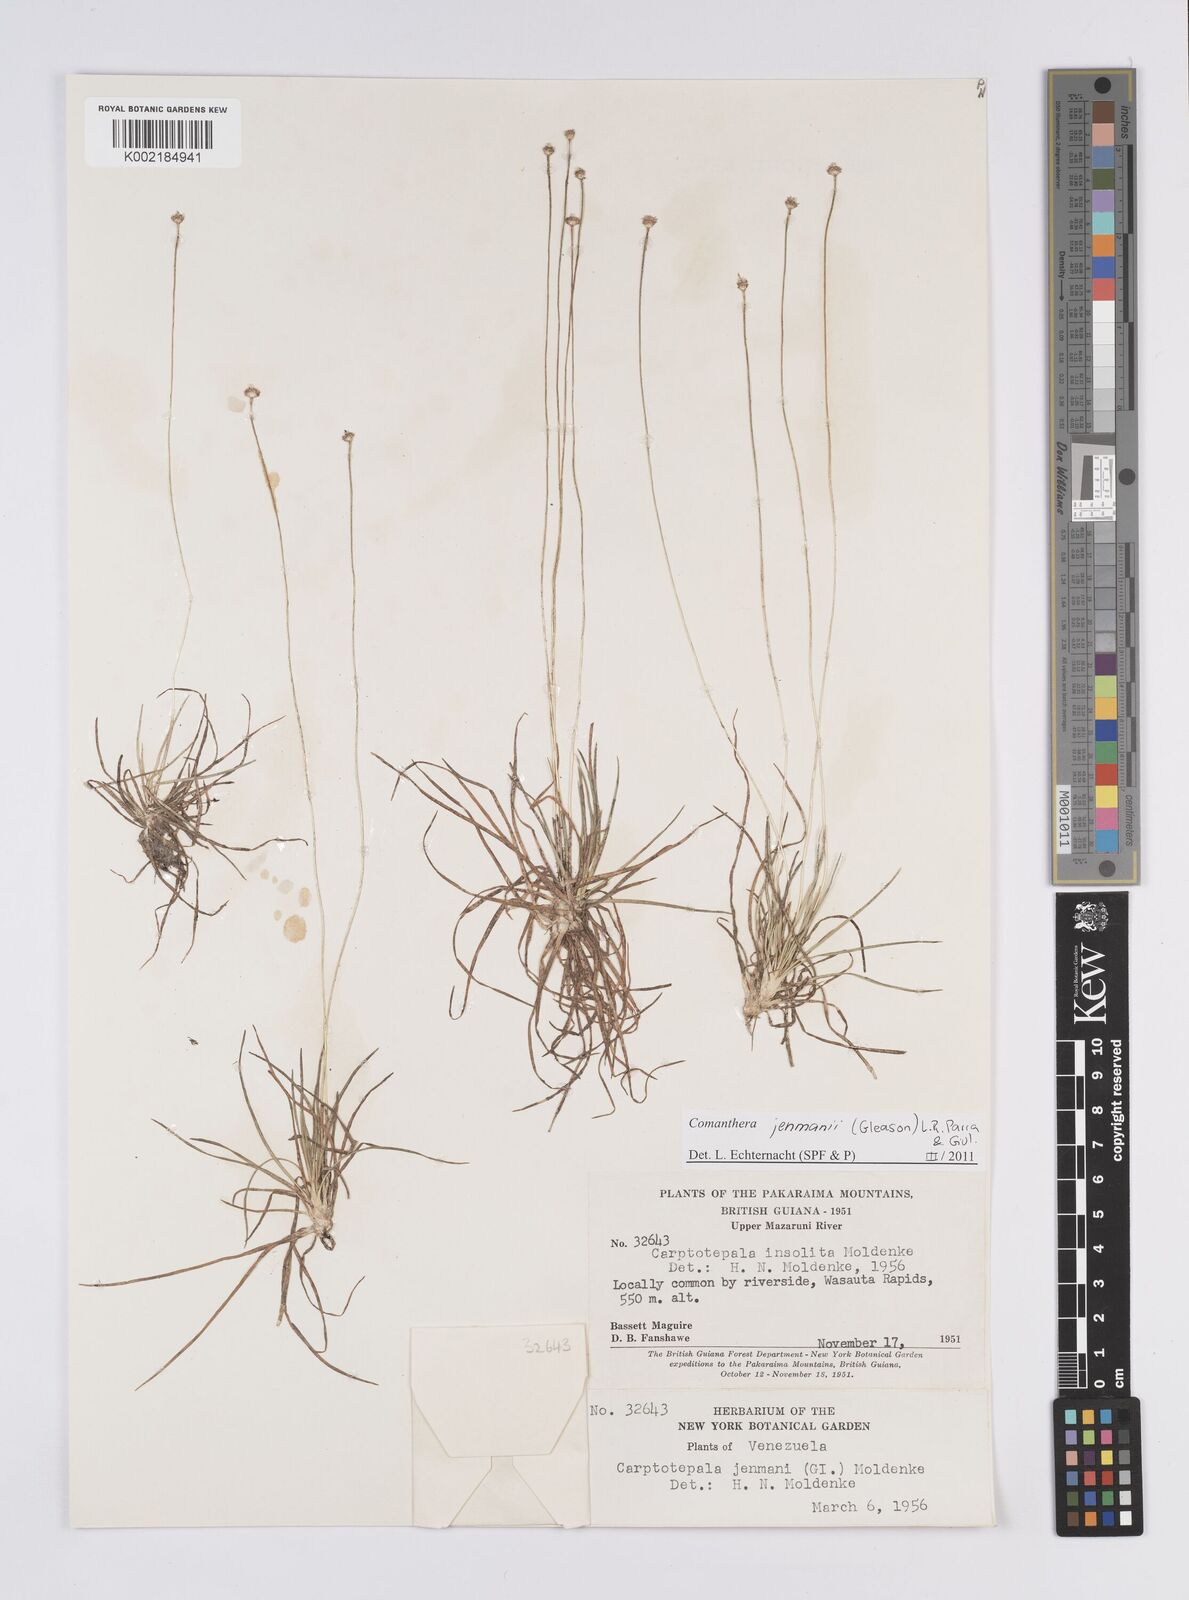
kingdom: Plantae
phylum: Tracheophyta
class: Liliopsida
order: Poales
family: Eriocaulaceae
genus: Comanthera
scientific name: Comanthera jenmanii
